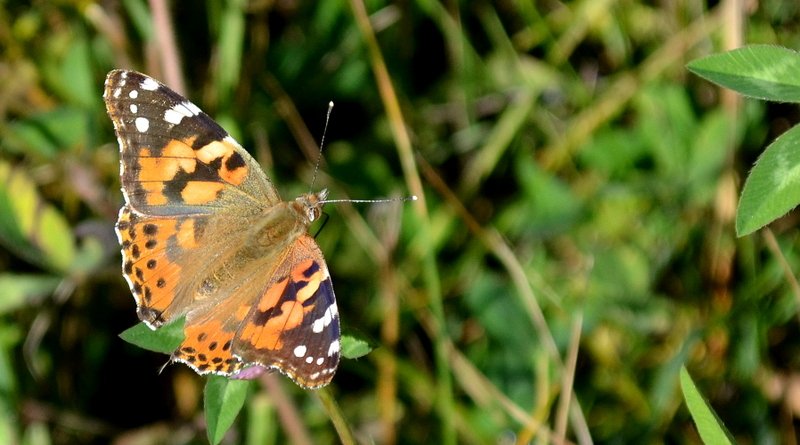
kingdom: Animalia
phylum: Arthropoda
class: Insecta
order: Lepidoptera
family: Nymphalidae
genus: Vanessa
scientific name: Vanessa cardui
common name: Painted Lady
